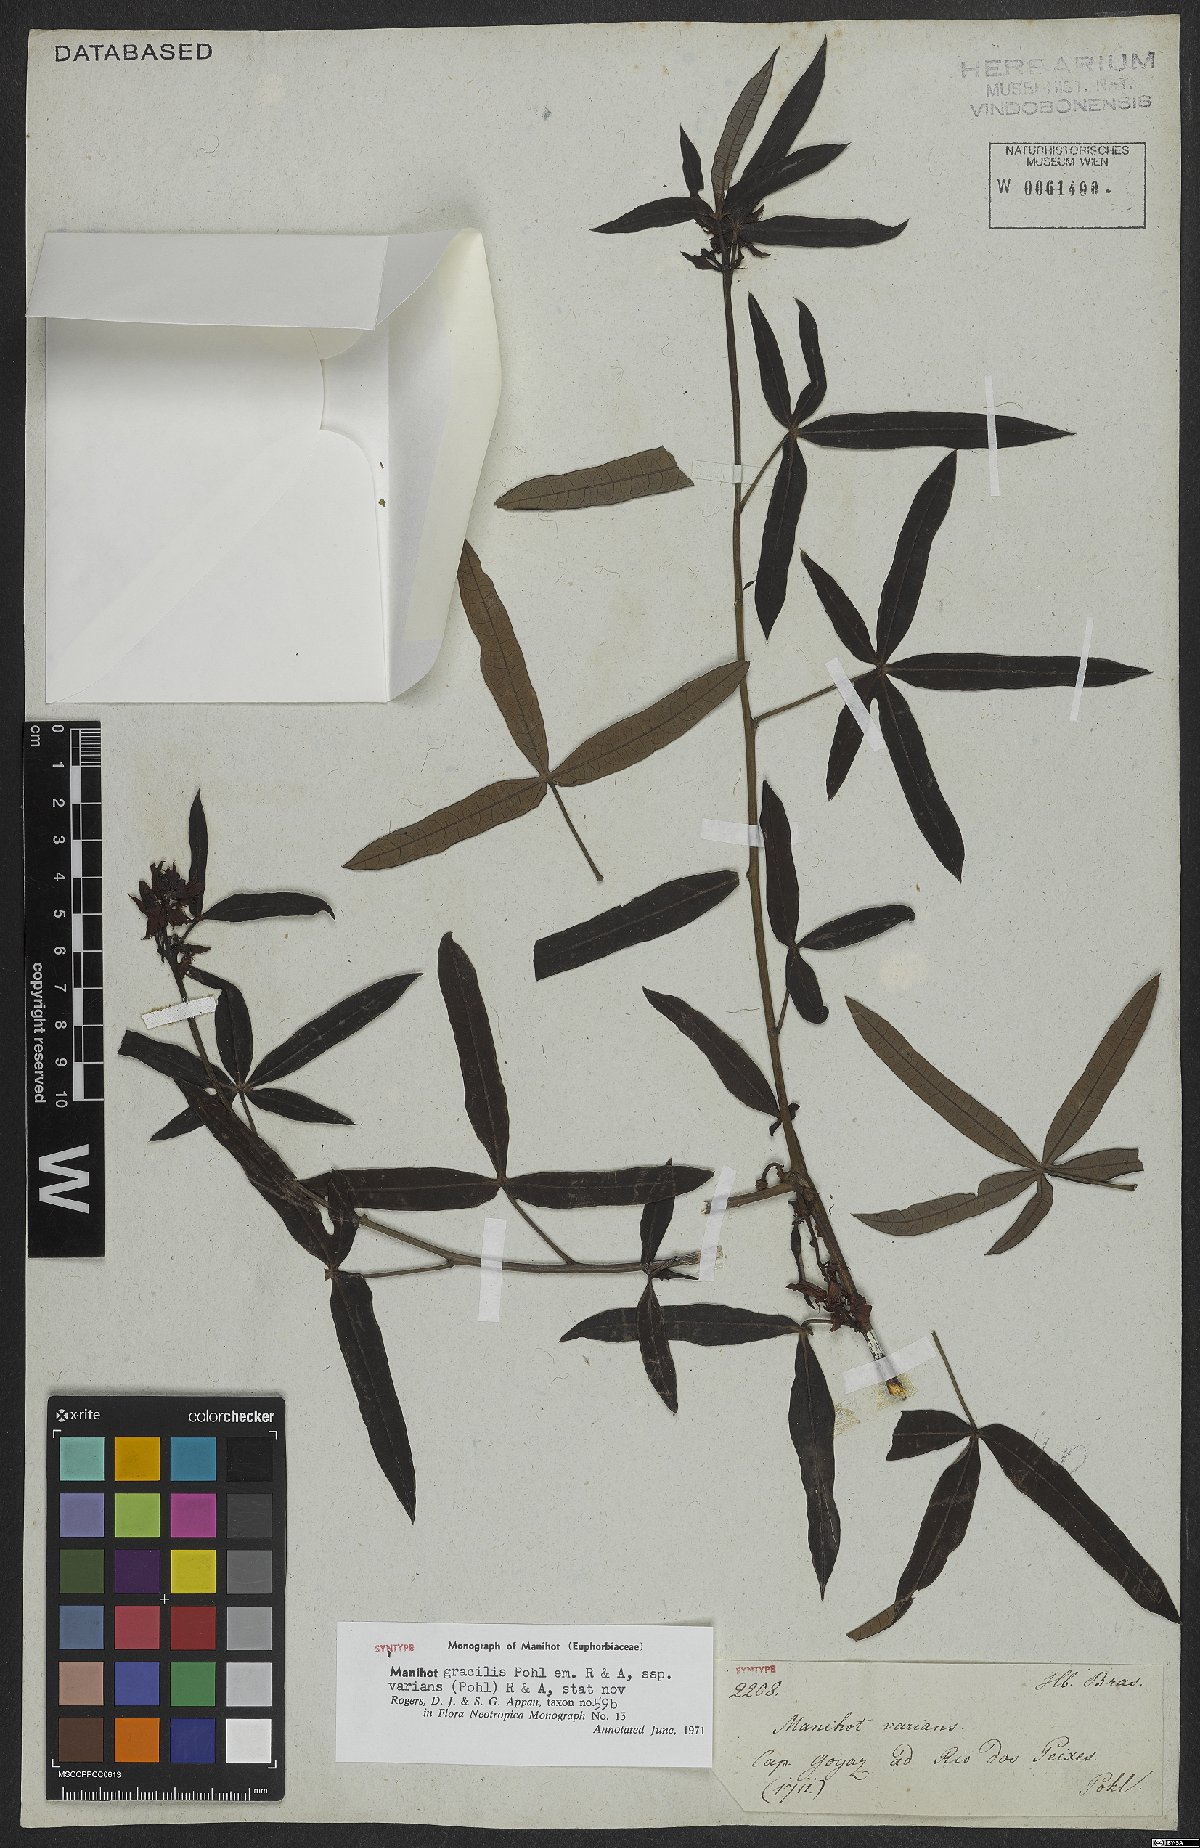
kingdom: Plantae
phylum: Tracheophyta
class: Magnoliopsida
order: Malpighiales
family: Euphorbiaceae
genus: Manihot
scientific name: Manihot gracilis
